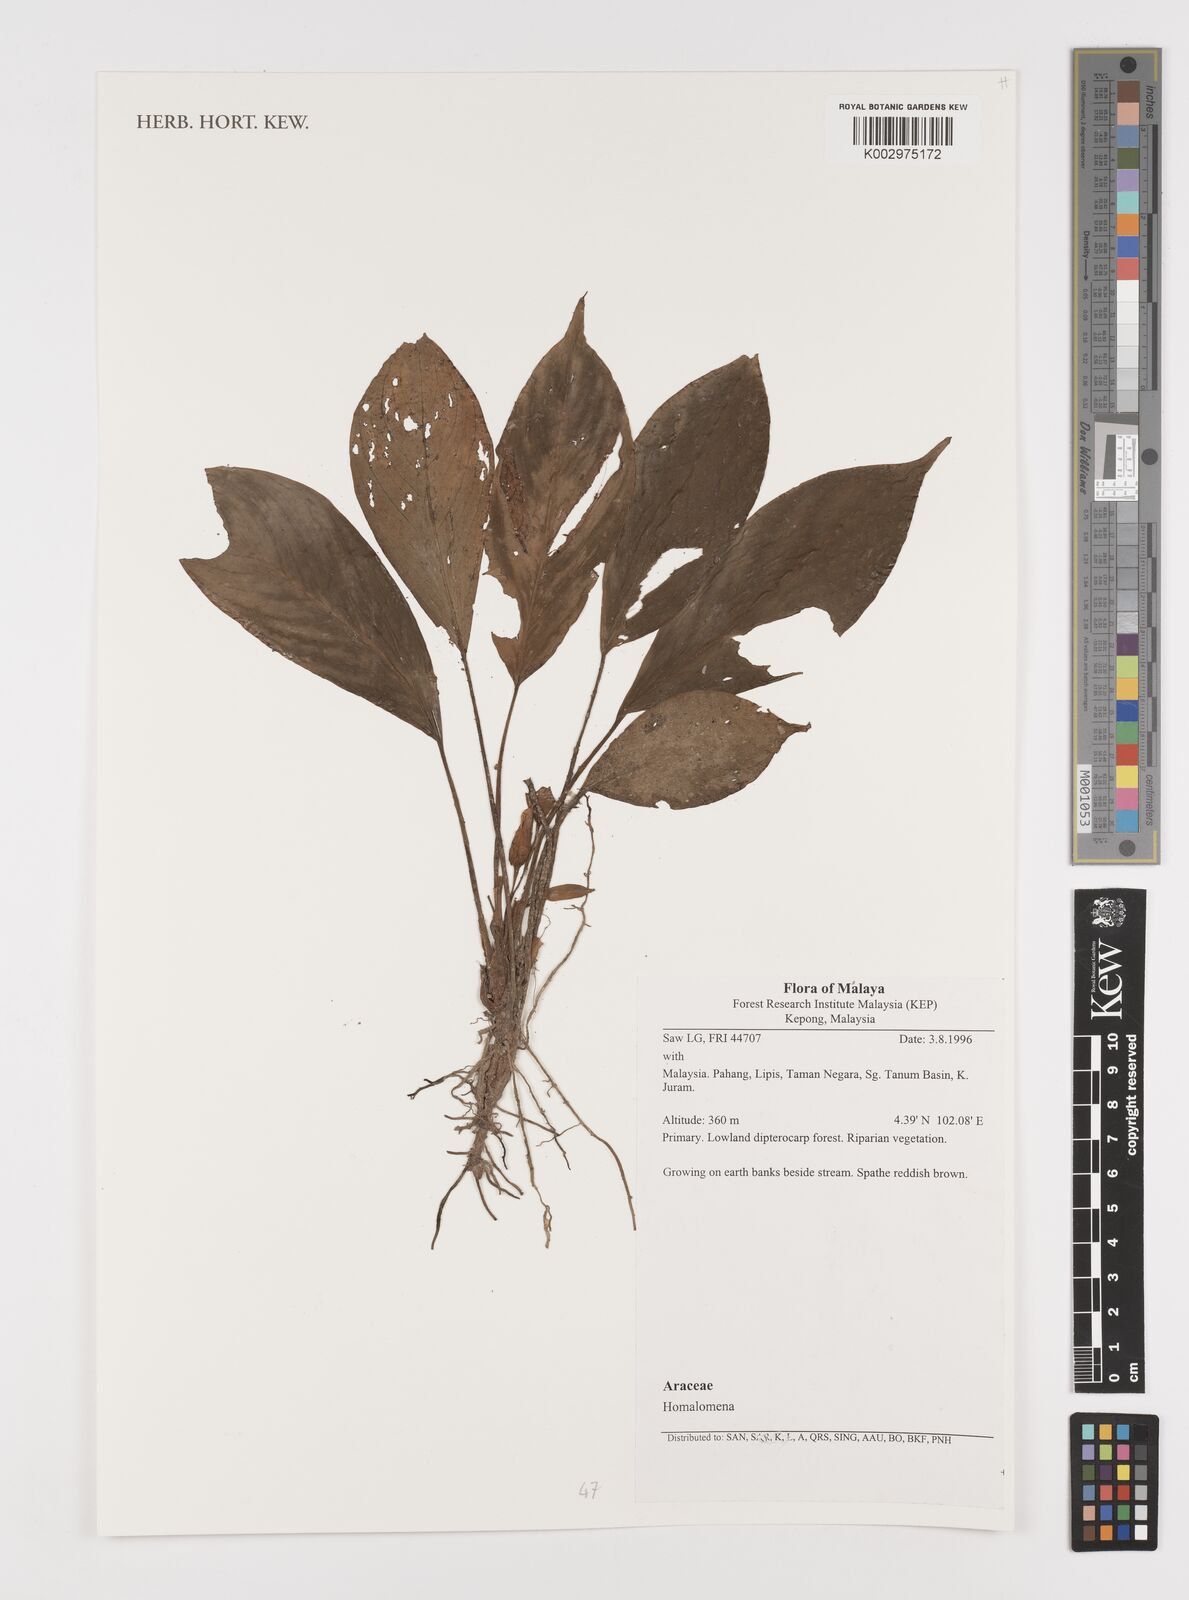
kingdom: Plantae
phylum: Tracheophyta
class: Liliopsida
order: Alismatales
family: Araceae
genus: Homalomena
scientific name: Homalomena
